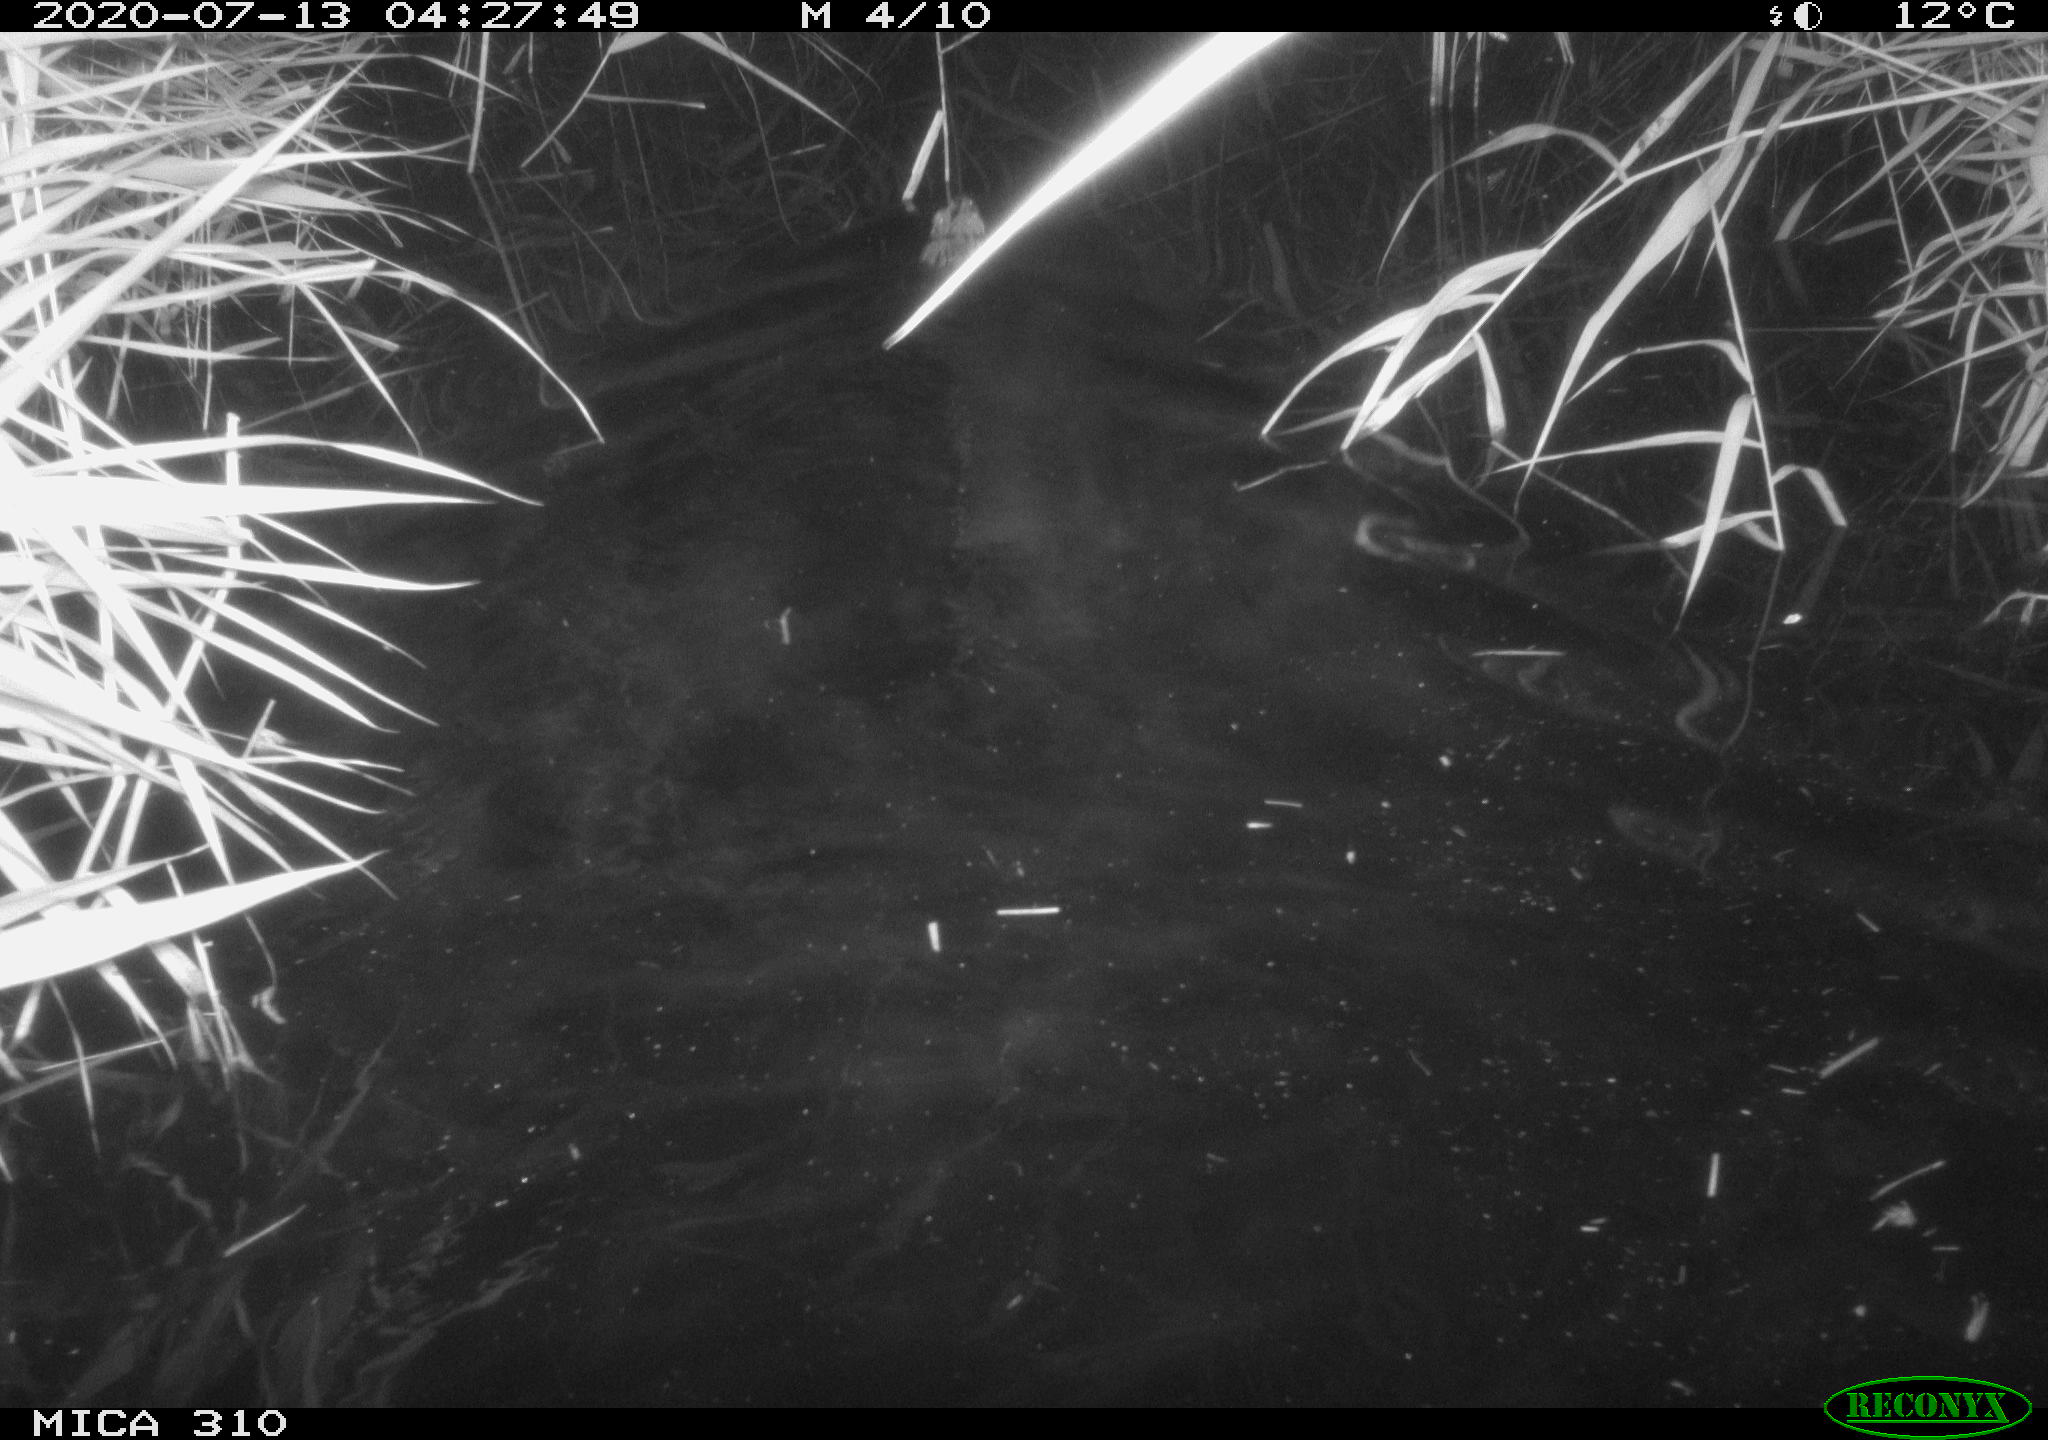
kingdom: Animalia
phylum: Chordata
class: Mammalia
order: Rodentia
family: Muridae
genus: Rattus
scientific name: Rattus norvegicus
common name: Brown rat
